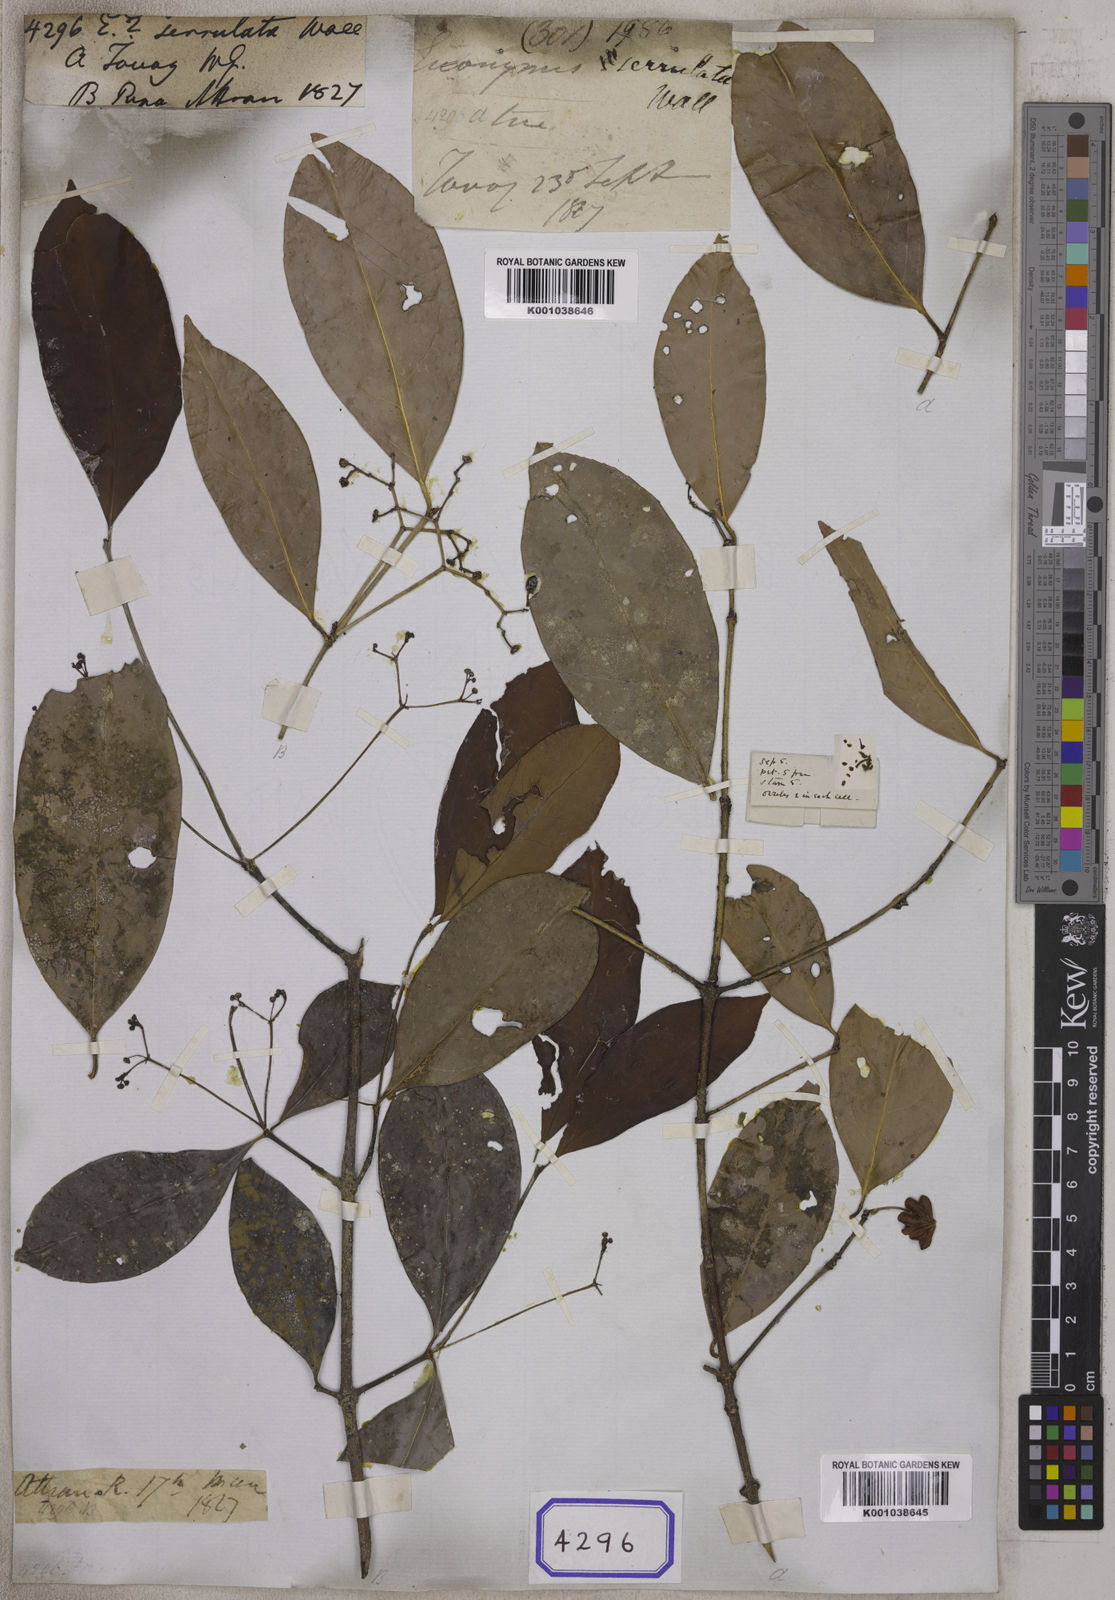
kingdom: Plantae
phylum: Tracheophyta
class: Magnoliopsida
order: Celastrales
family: Celastraceae
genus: Euonymus
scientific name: Euonymus glaber
